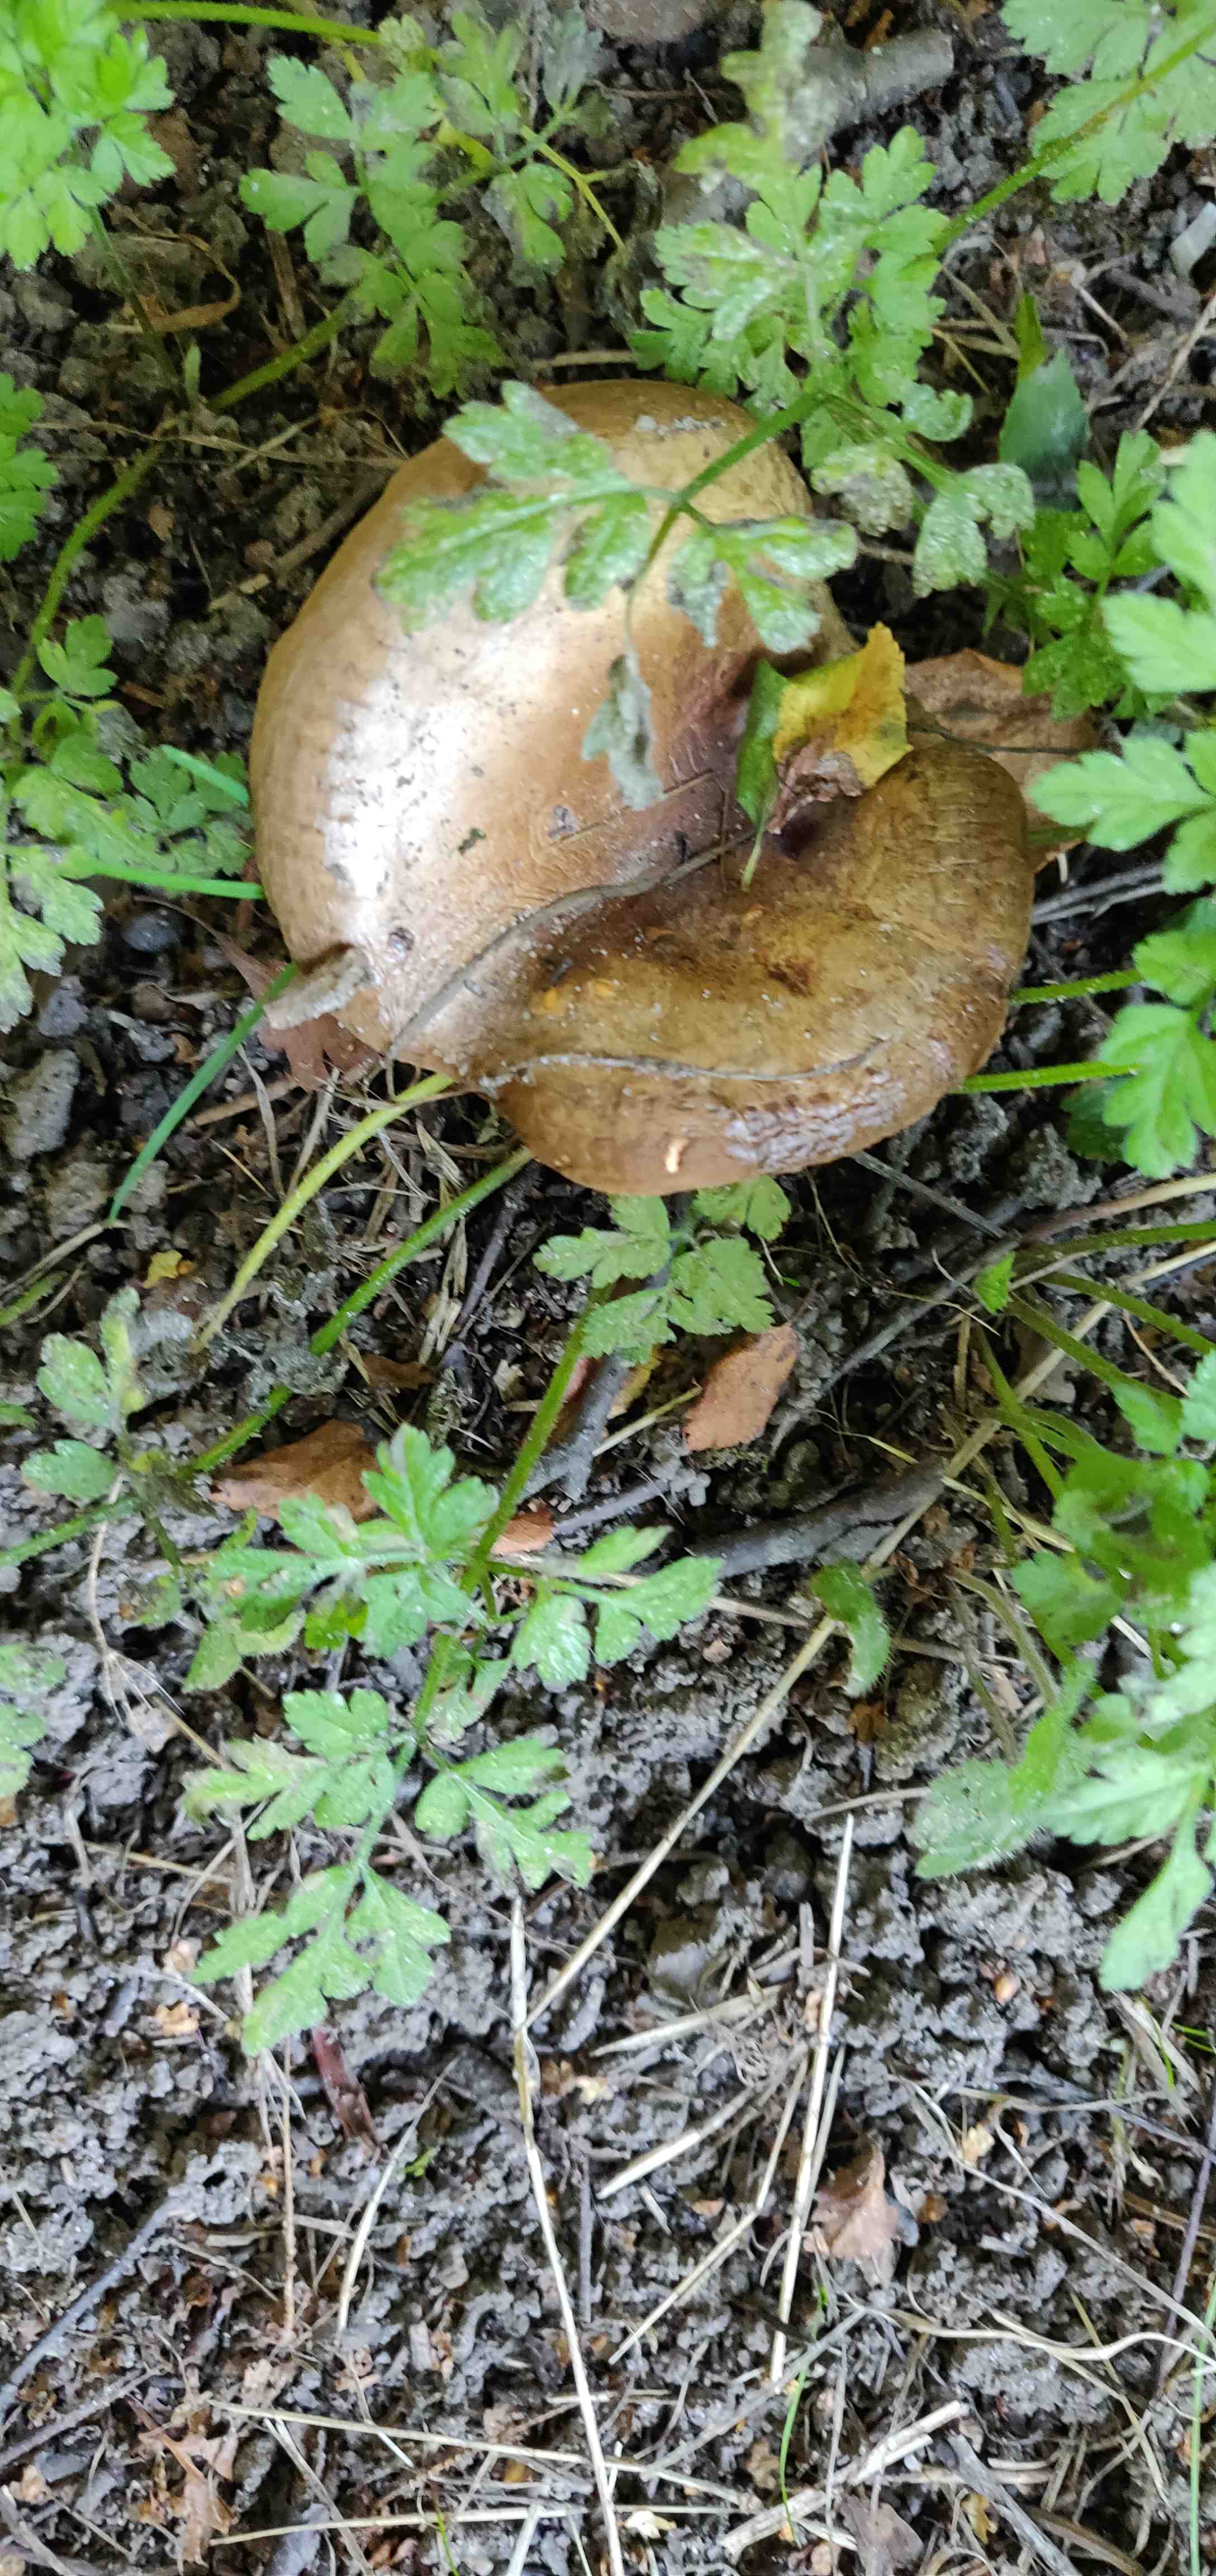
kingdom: Fungi
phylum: Basidiomycota
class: Agaricomycetes
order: Boletales
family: Paxillaceae
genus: Paxillus
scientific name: Paxillus
